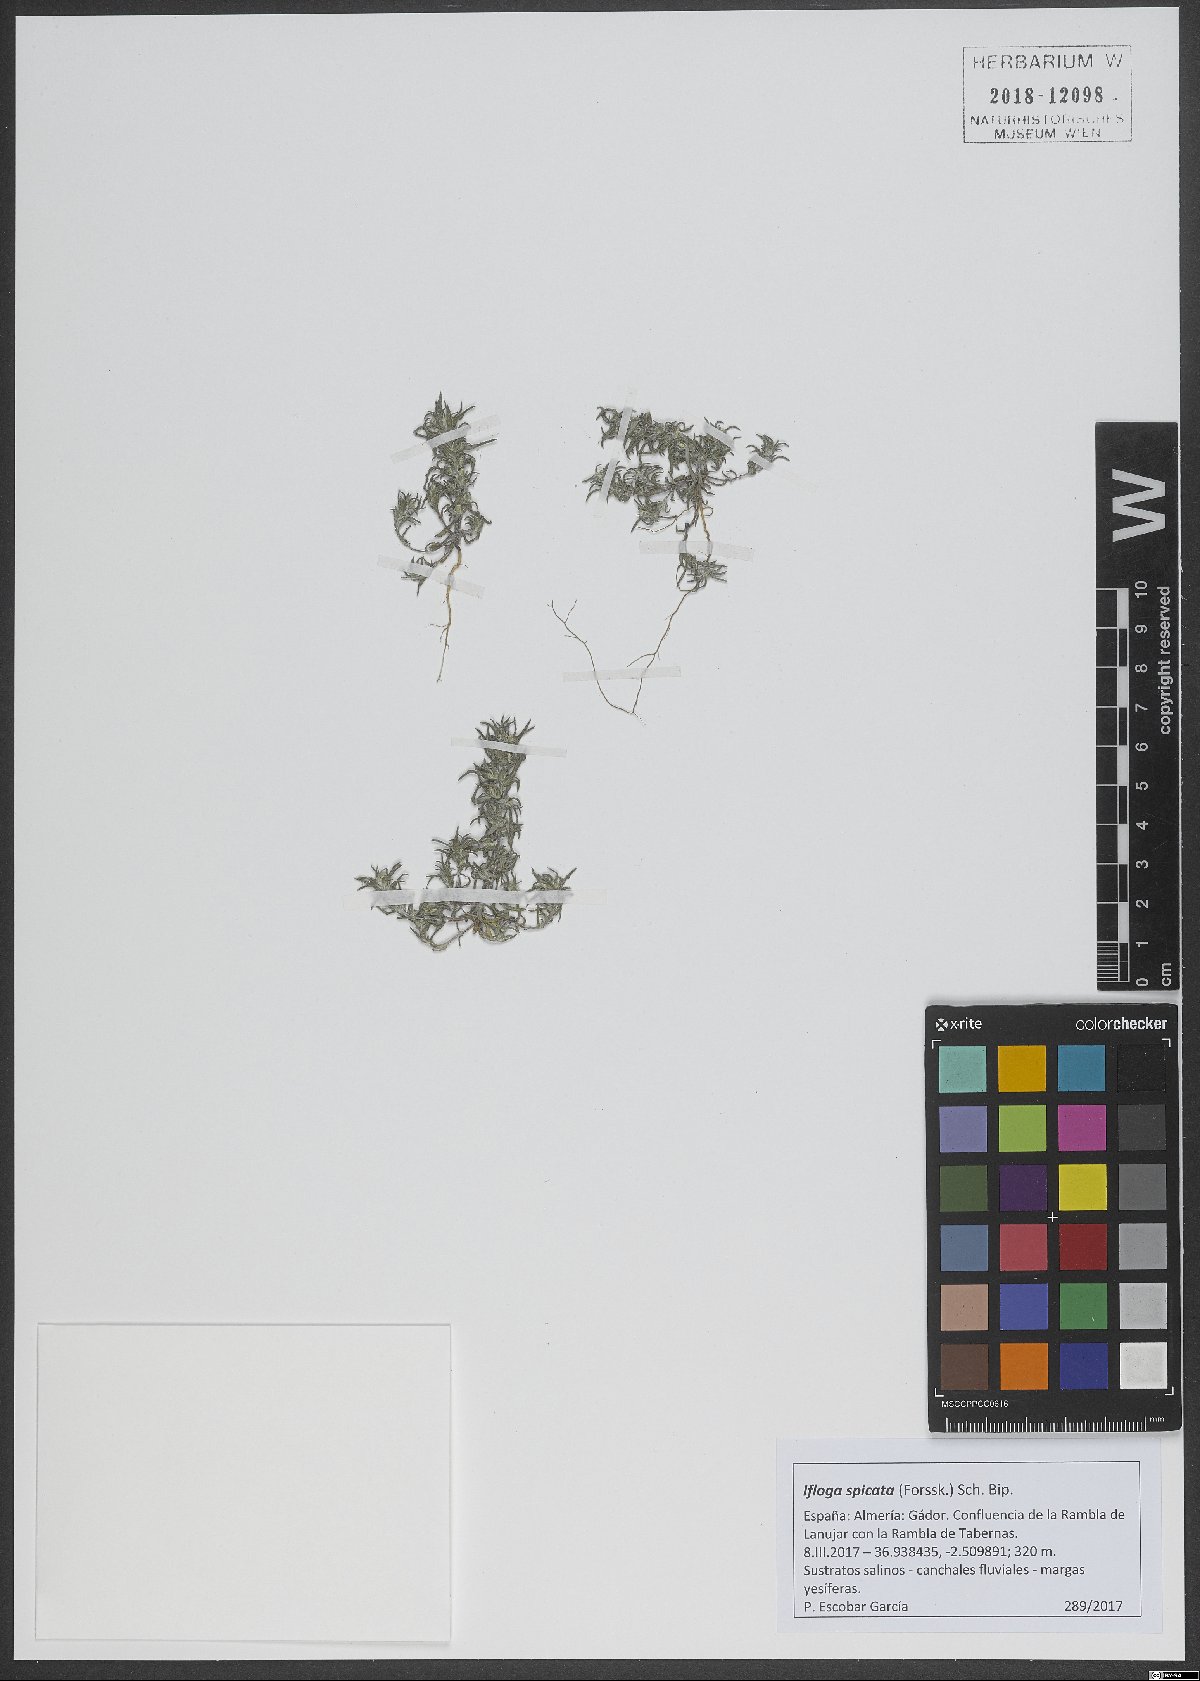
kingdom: Plantae
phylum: Tracheophyta
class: Magnoliopsida
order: Asterales
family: Asteraceae
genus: Ifloga
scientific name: Ifloga spicata
